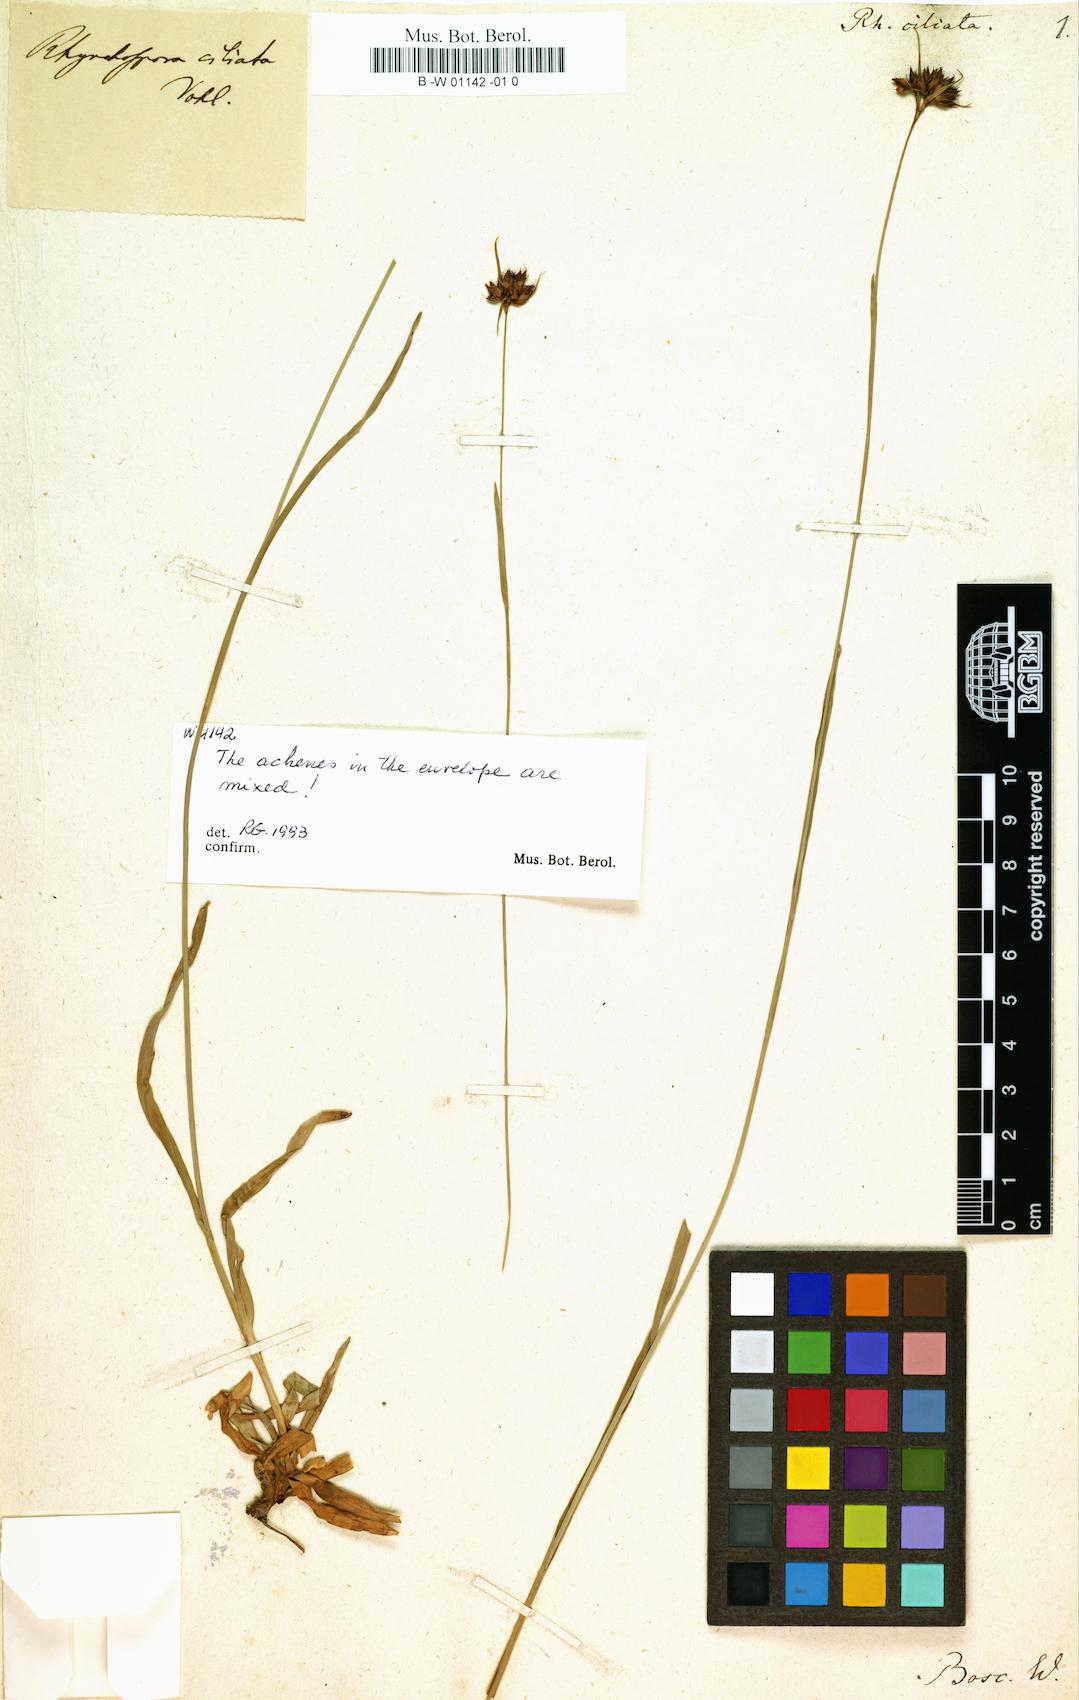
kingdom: Plantae
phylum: Tracheophyta
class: Liliopsida
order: Poales
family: Cyperaceae
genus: Rhynchospora
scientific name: Rhynchospora ciliaris
